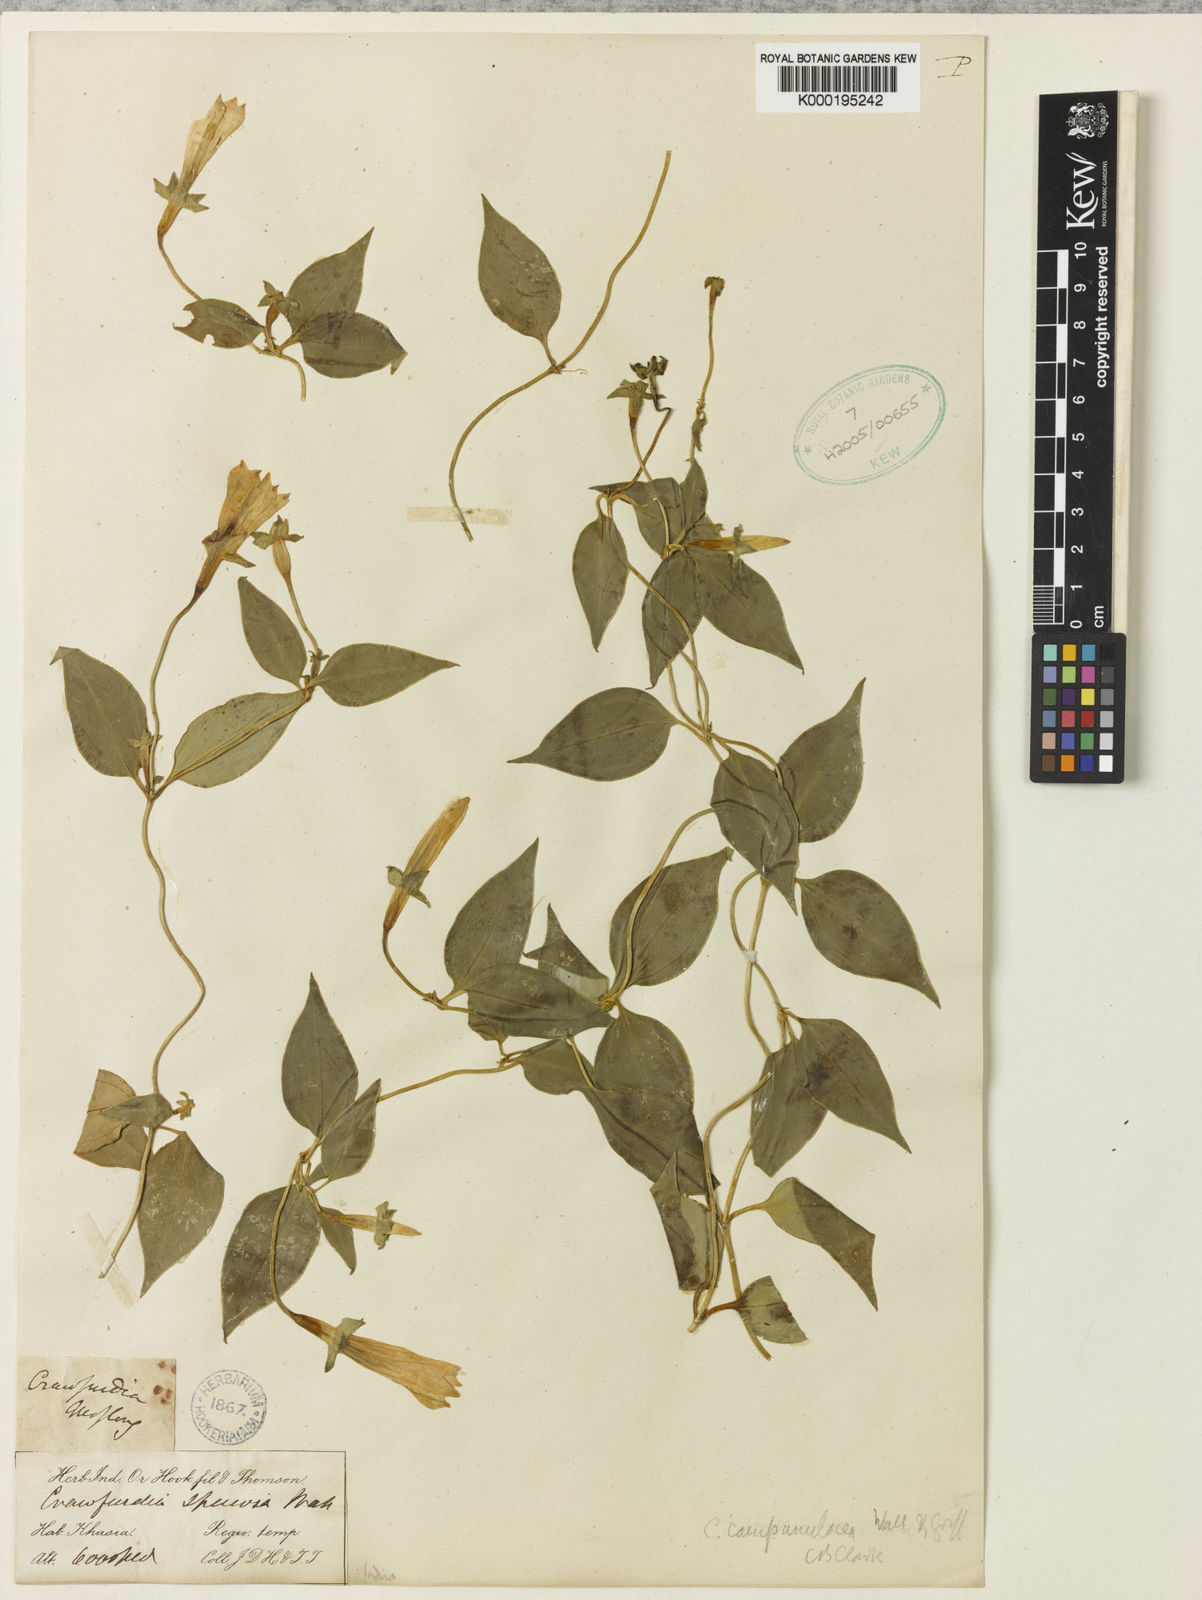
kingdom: Plantae
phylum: Tracheophyta
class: Magnoliopsida
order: Gentianales
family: Gentianaceae
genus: Crawfurdia
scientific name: Crawfurdia campanulacea
